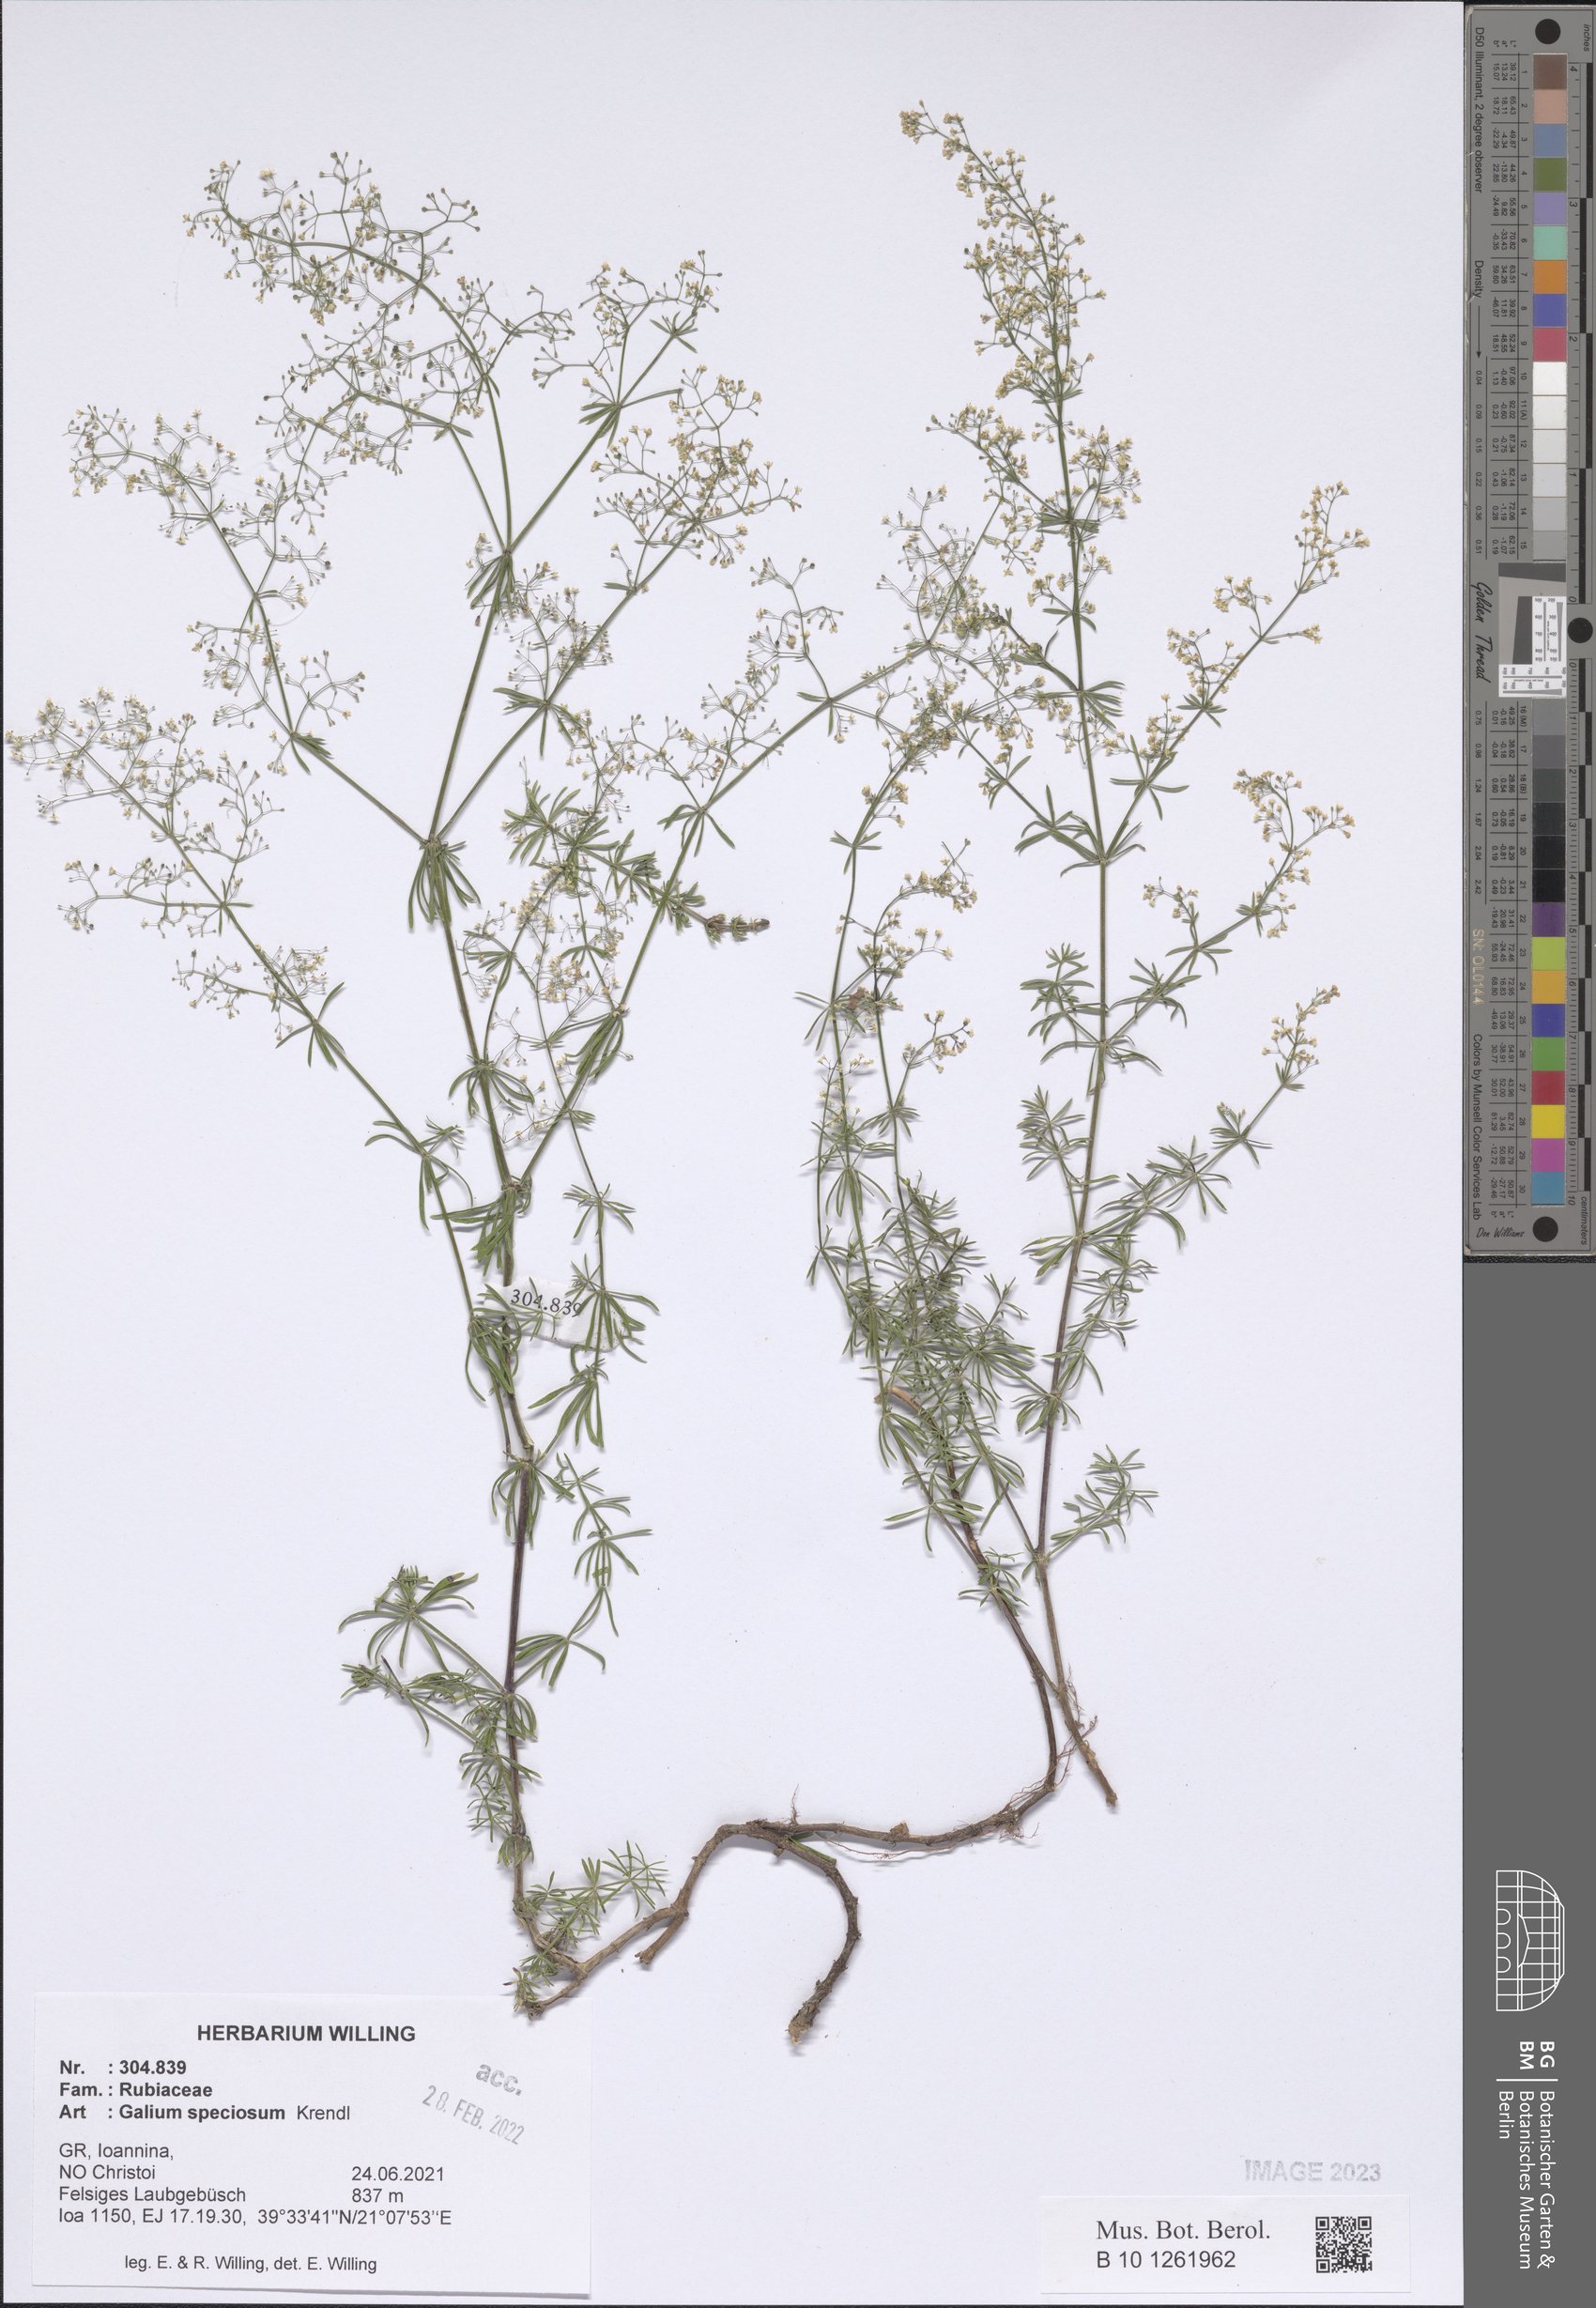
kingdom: Plantae
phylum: Tracheophyta
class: Magnoliopsida
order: Gentianales
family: Rubiaceae
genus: Galium
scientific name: Galium speciosum
